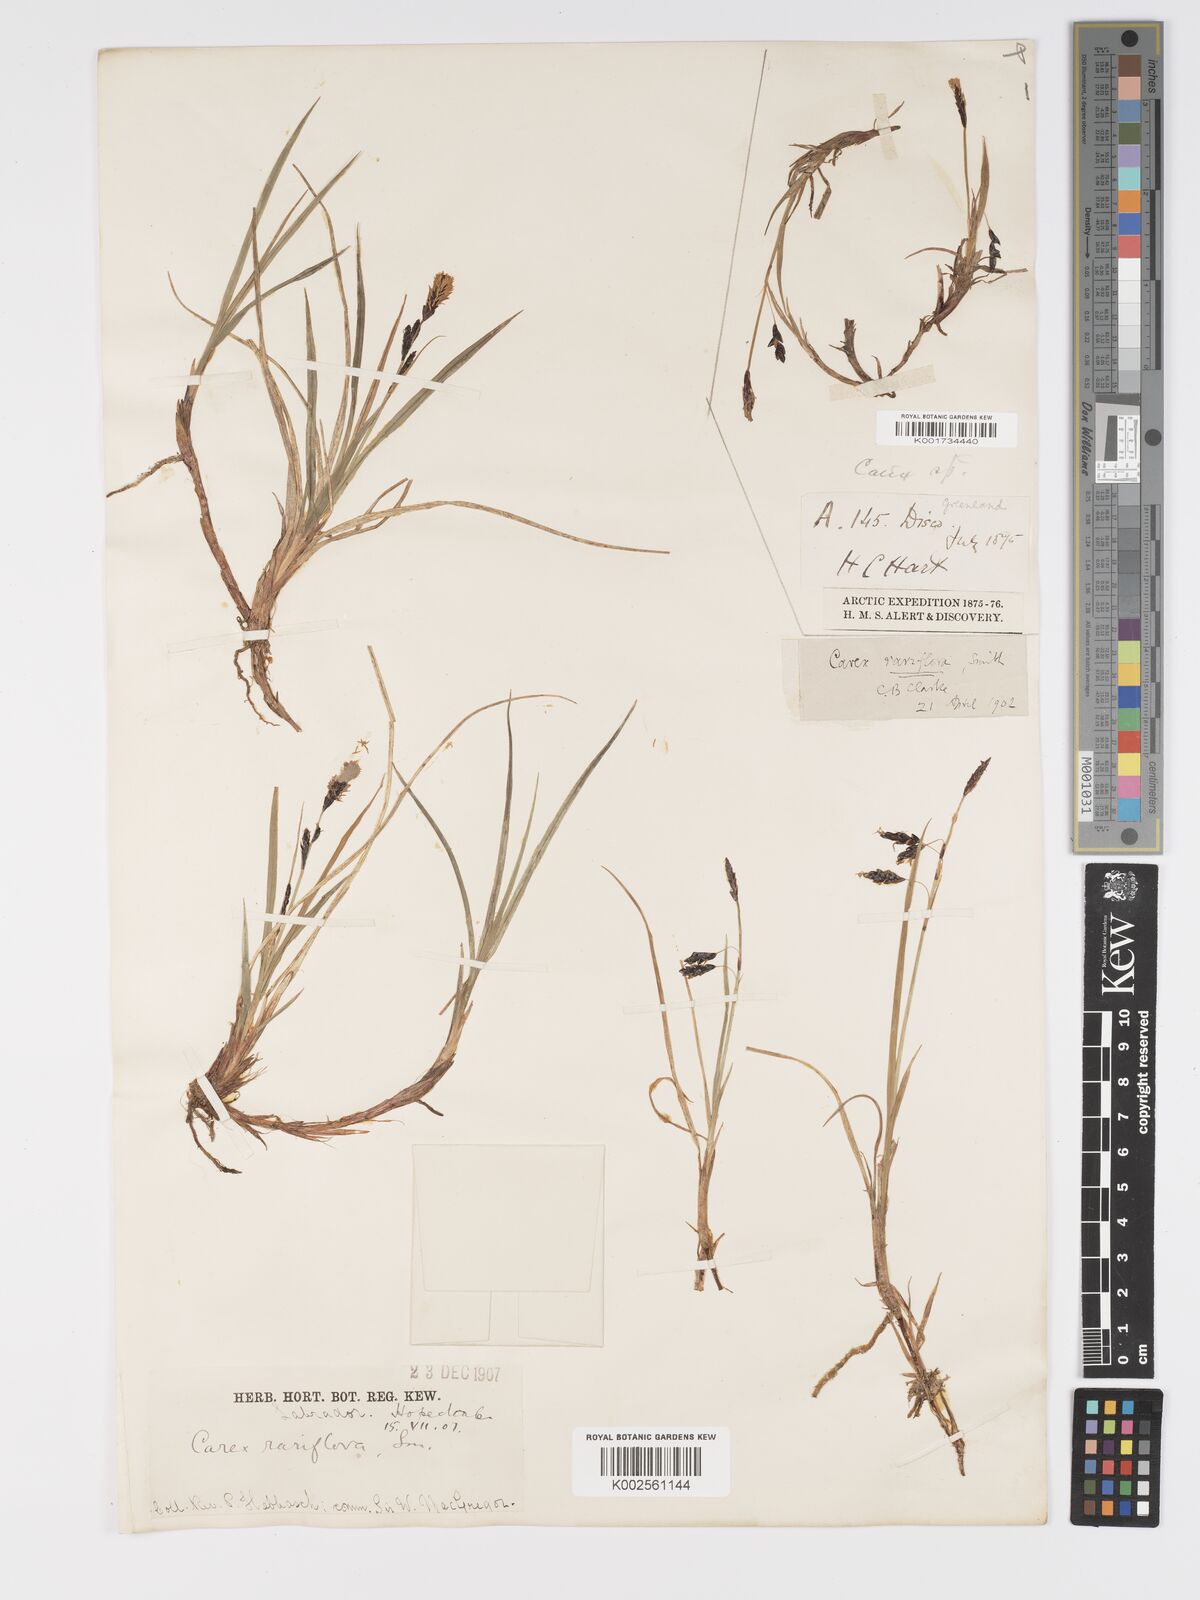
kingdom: Plantae
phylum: Tracheophyta
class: Liliopsida
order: Poales
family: Cyperaceae
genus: Carex
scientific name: Carex rariflora
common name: Loose-flowered alpine sedge
